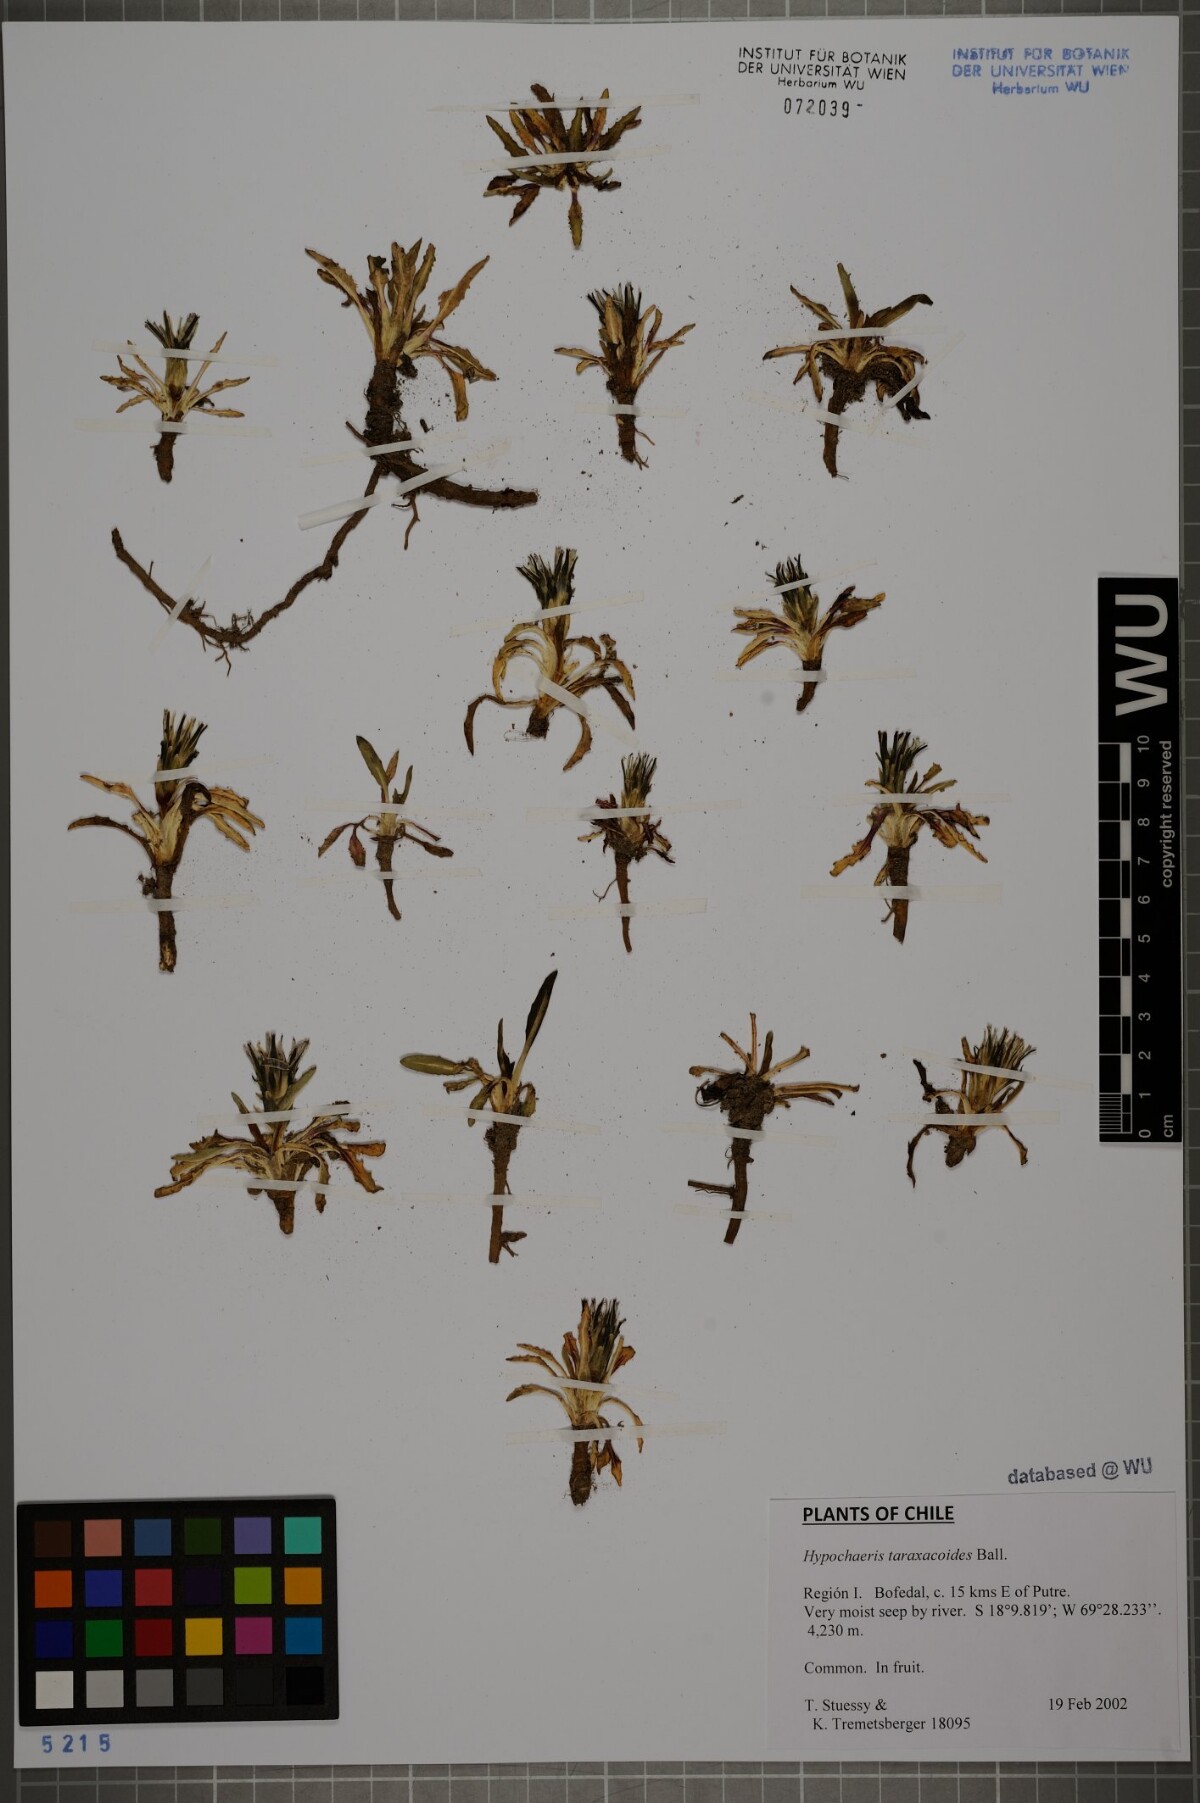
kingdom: Plantae
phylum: Tracheophyta
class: Magnoliopsida
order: Asterales
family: Asteraceae
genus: Hypochaeris
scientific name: Hypochaeris taraxacoides
